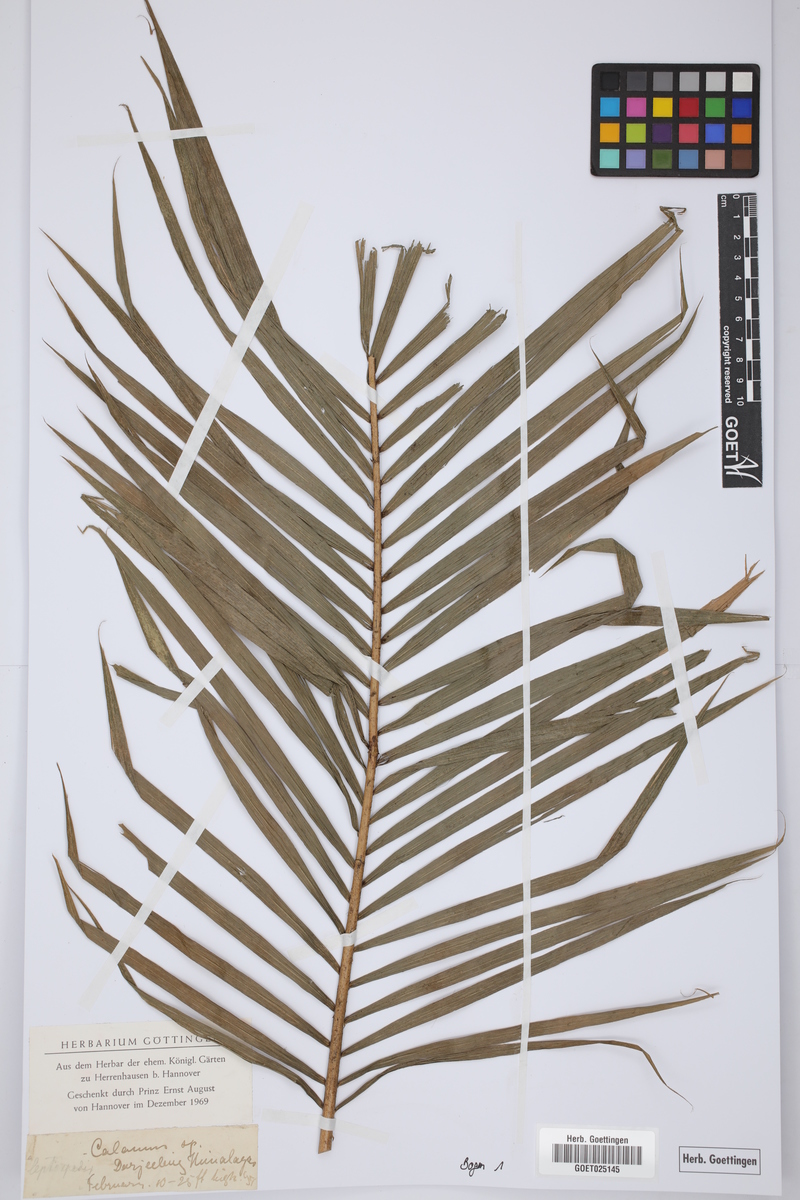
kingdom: Plantae
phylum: Tracheophyta
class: Liliopsida
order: Arecales
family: Arecaceae
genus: Calamus
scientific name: Calamus
